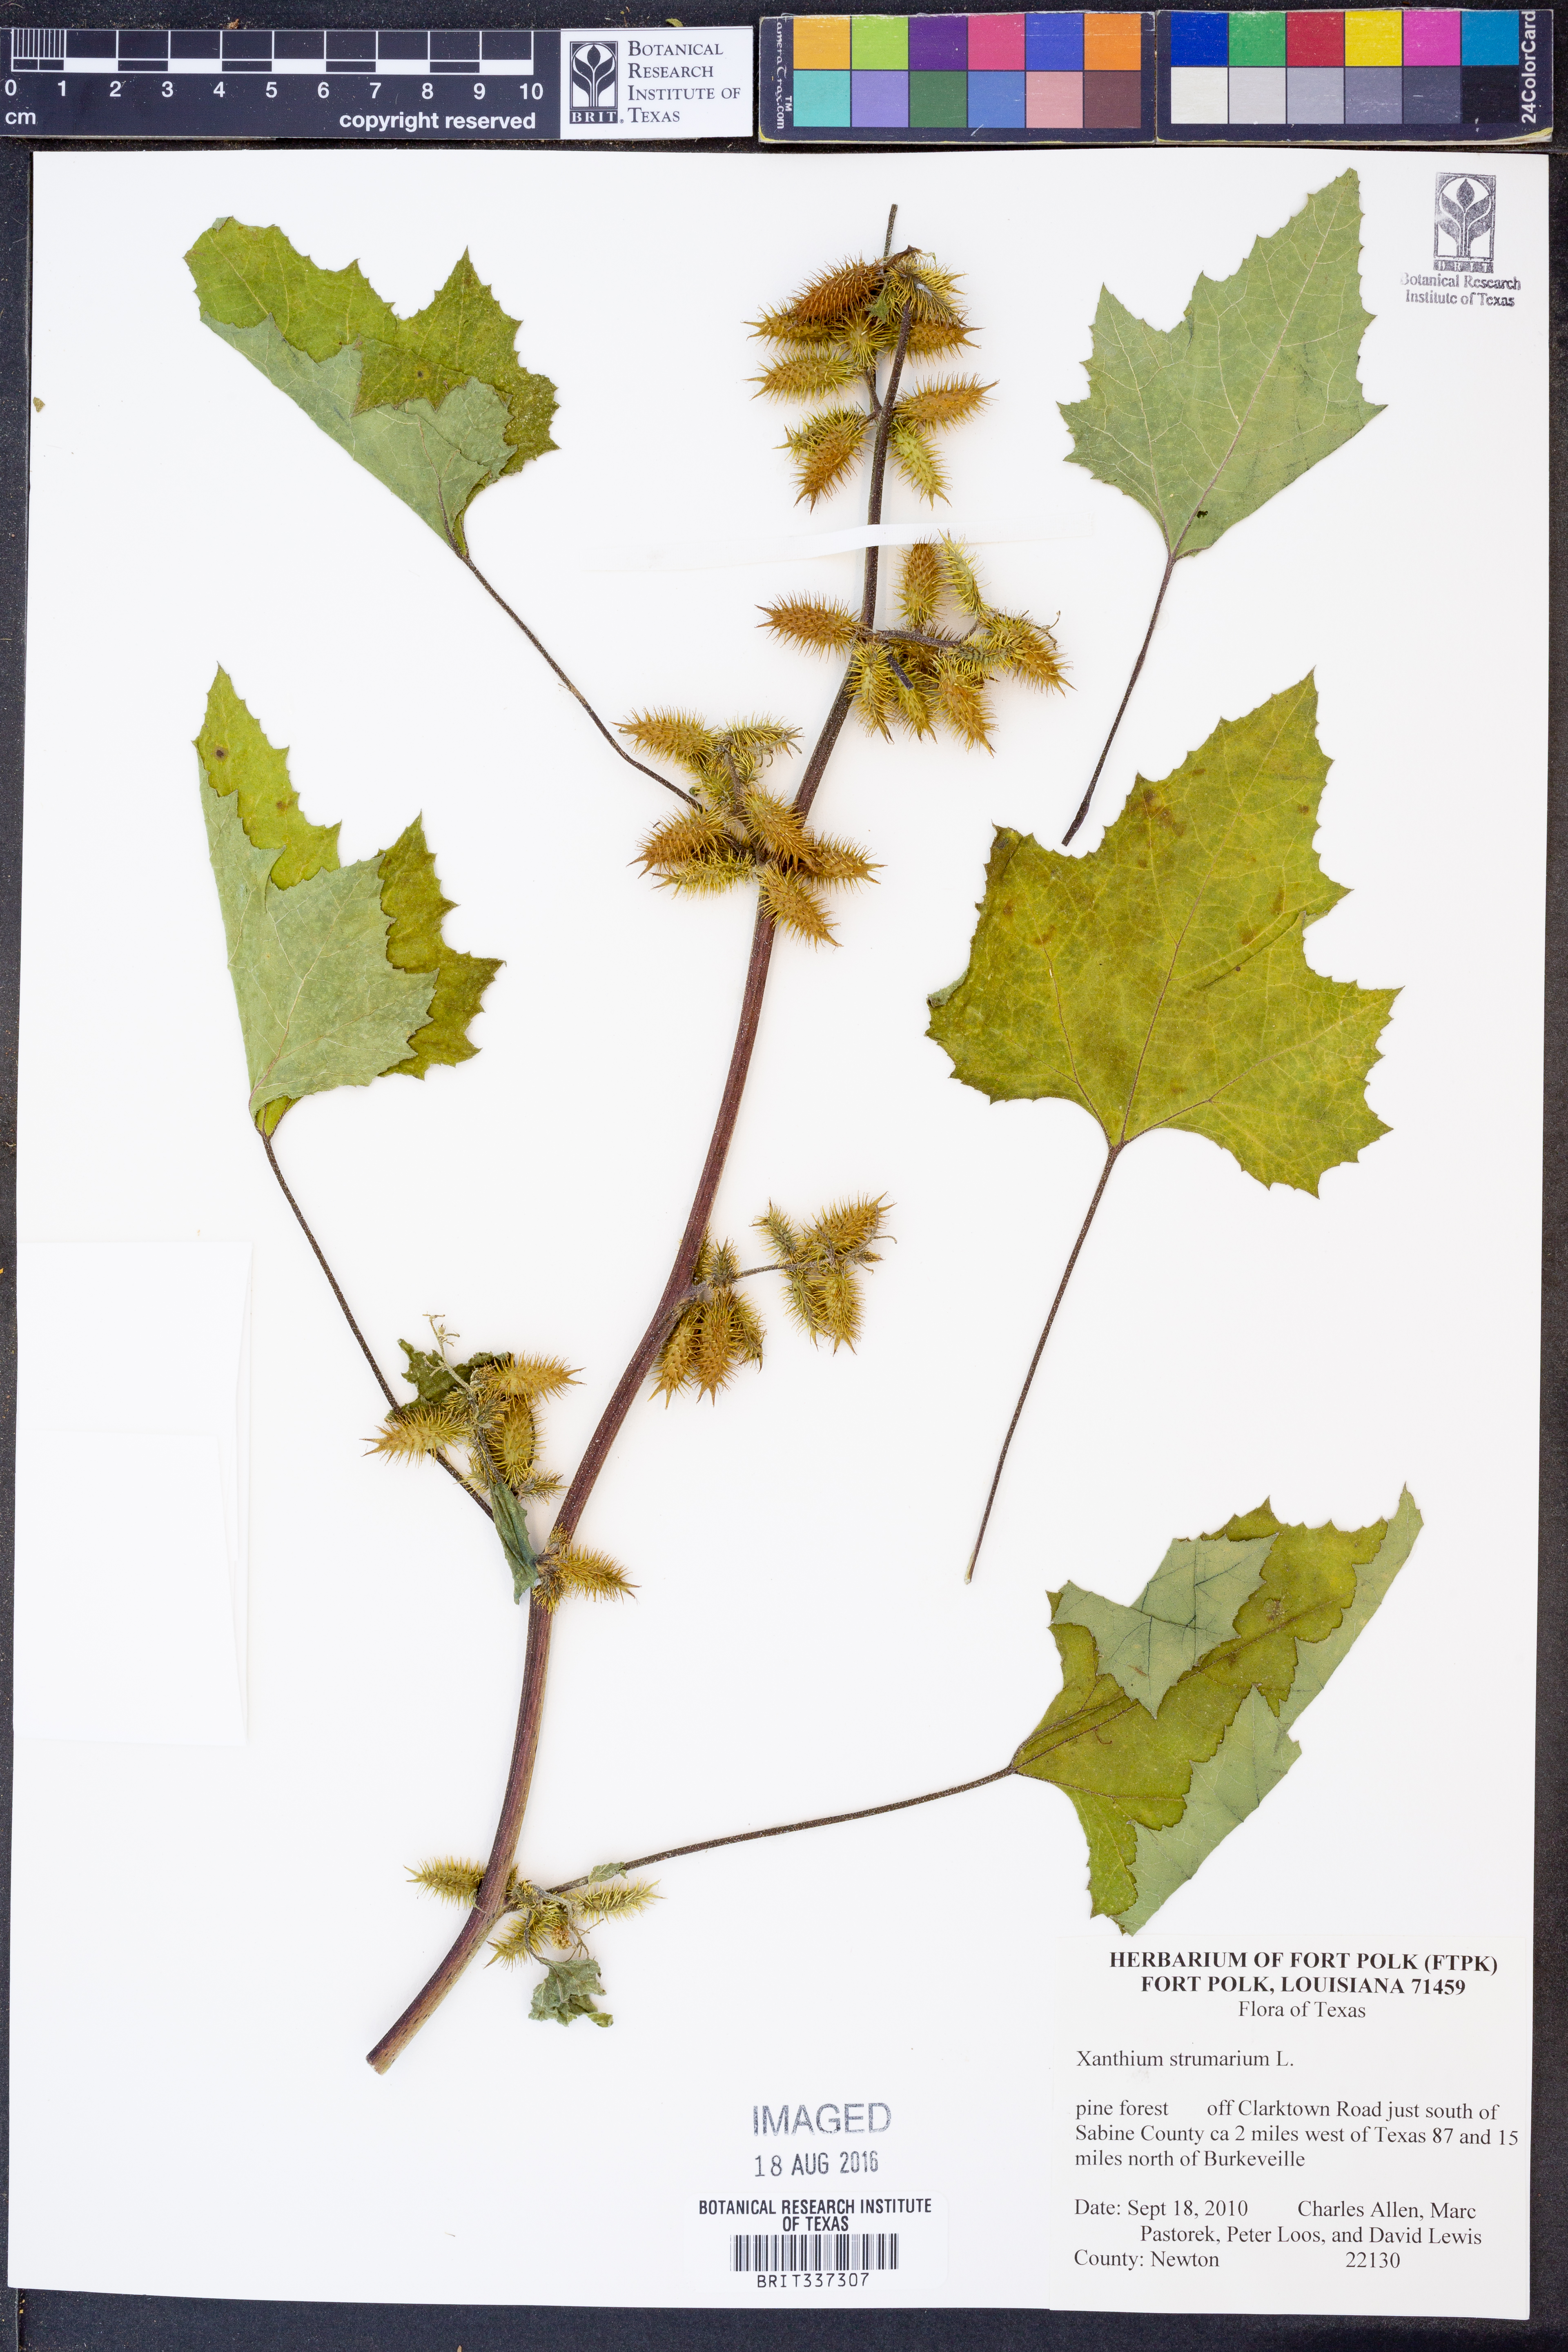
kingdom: Plantae
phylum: Tracheophyta
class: Magnoliopsida
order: Asterales
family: Asteraceae
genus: Xanthium
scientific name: Xanthium strumarium
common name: Rough cocklebur
